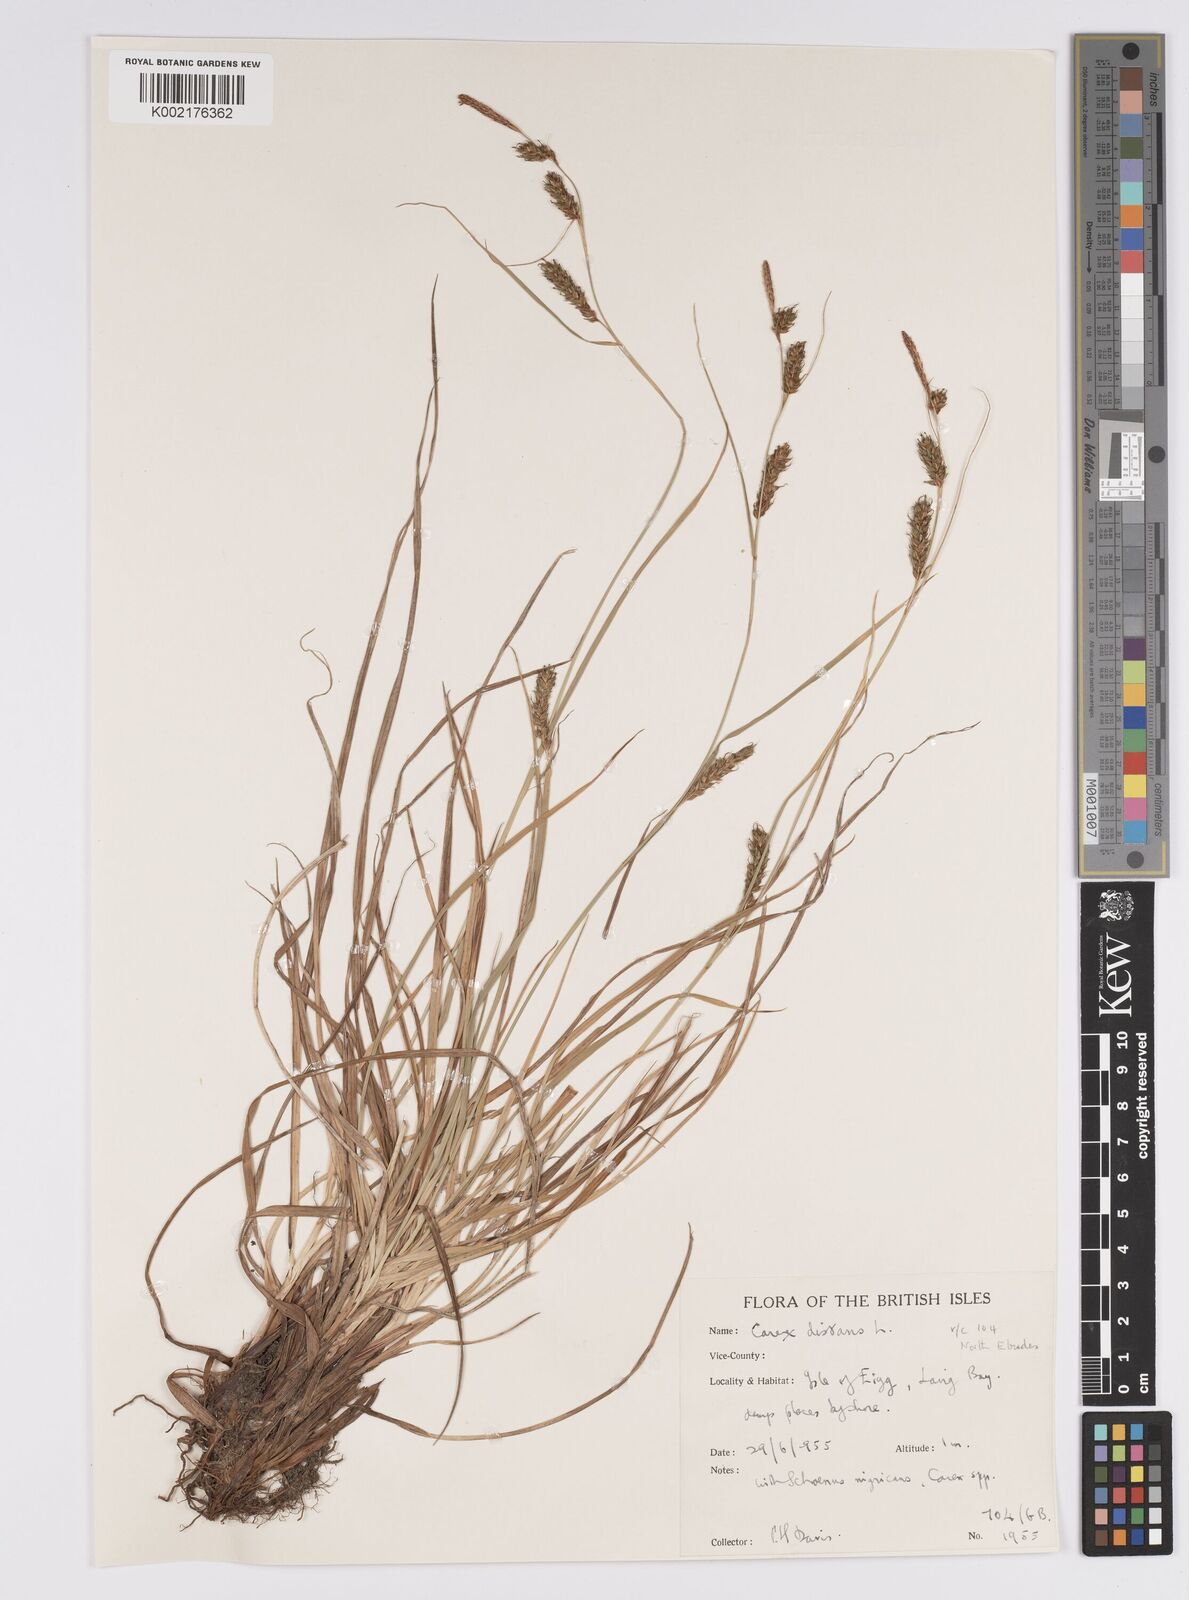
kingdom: Plantae
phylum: Tracheophyta
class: Liliopsida
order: Poales
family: Cyperaceae
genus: Carex
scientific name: Carex distans
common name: Distant sedge
